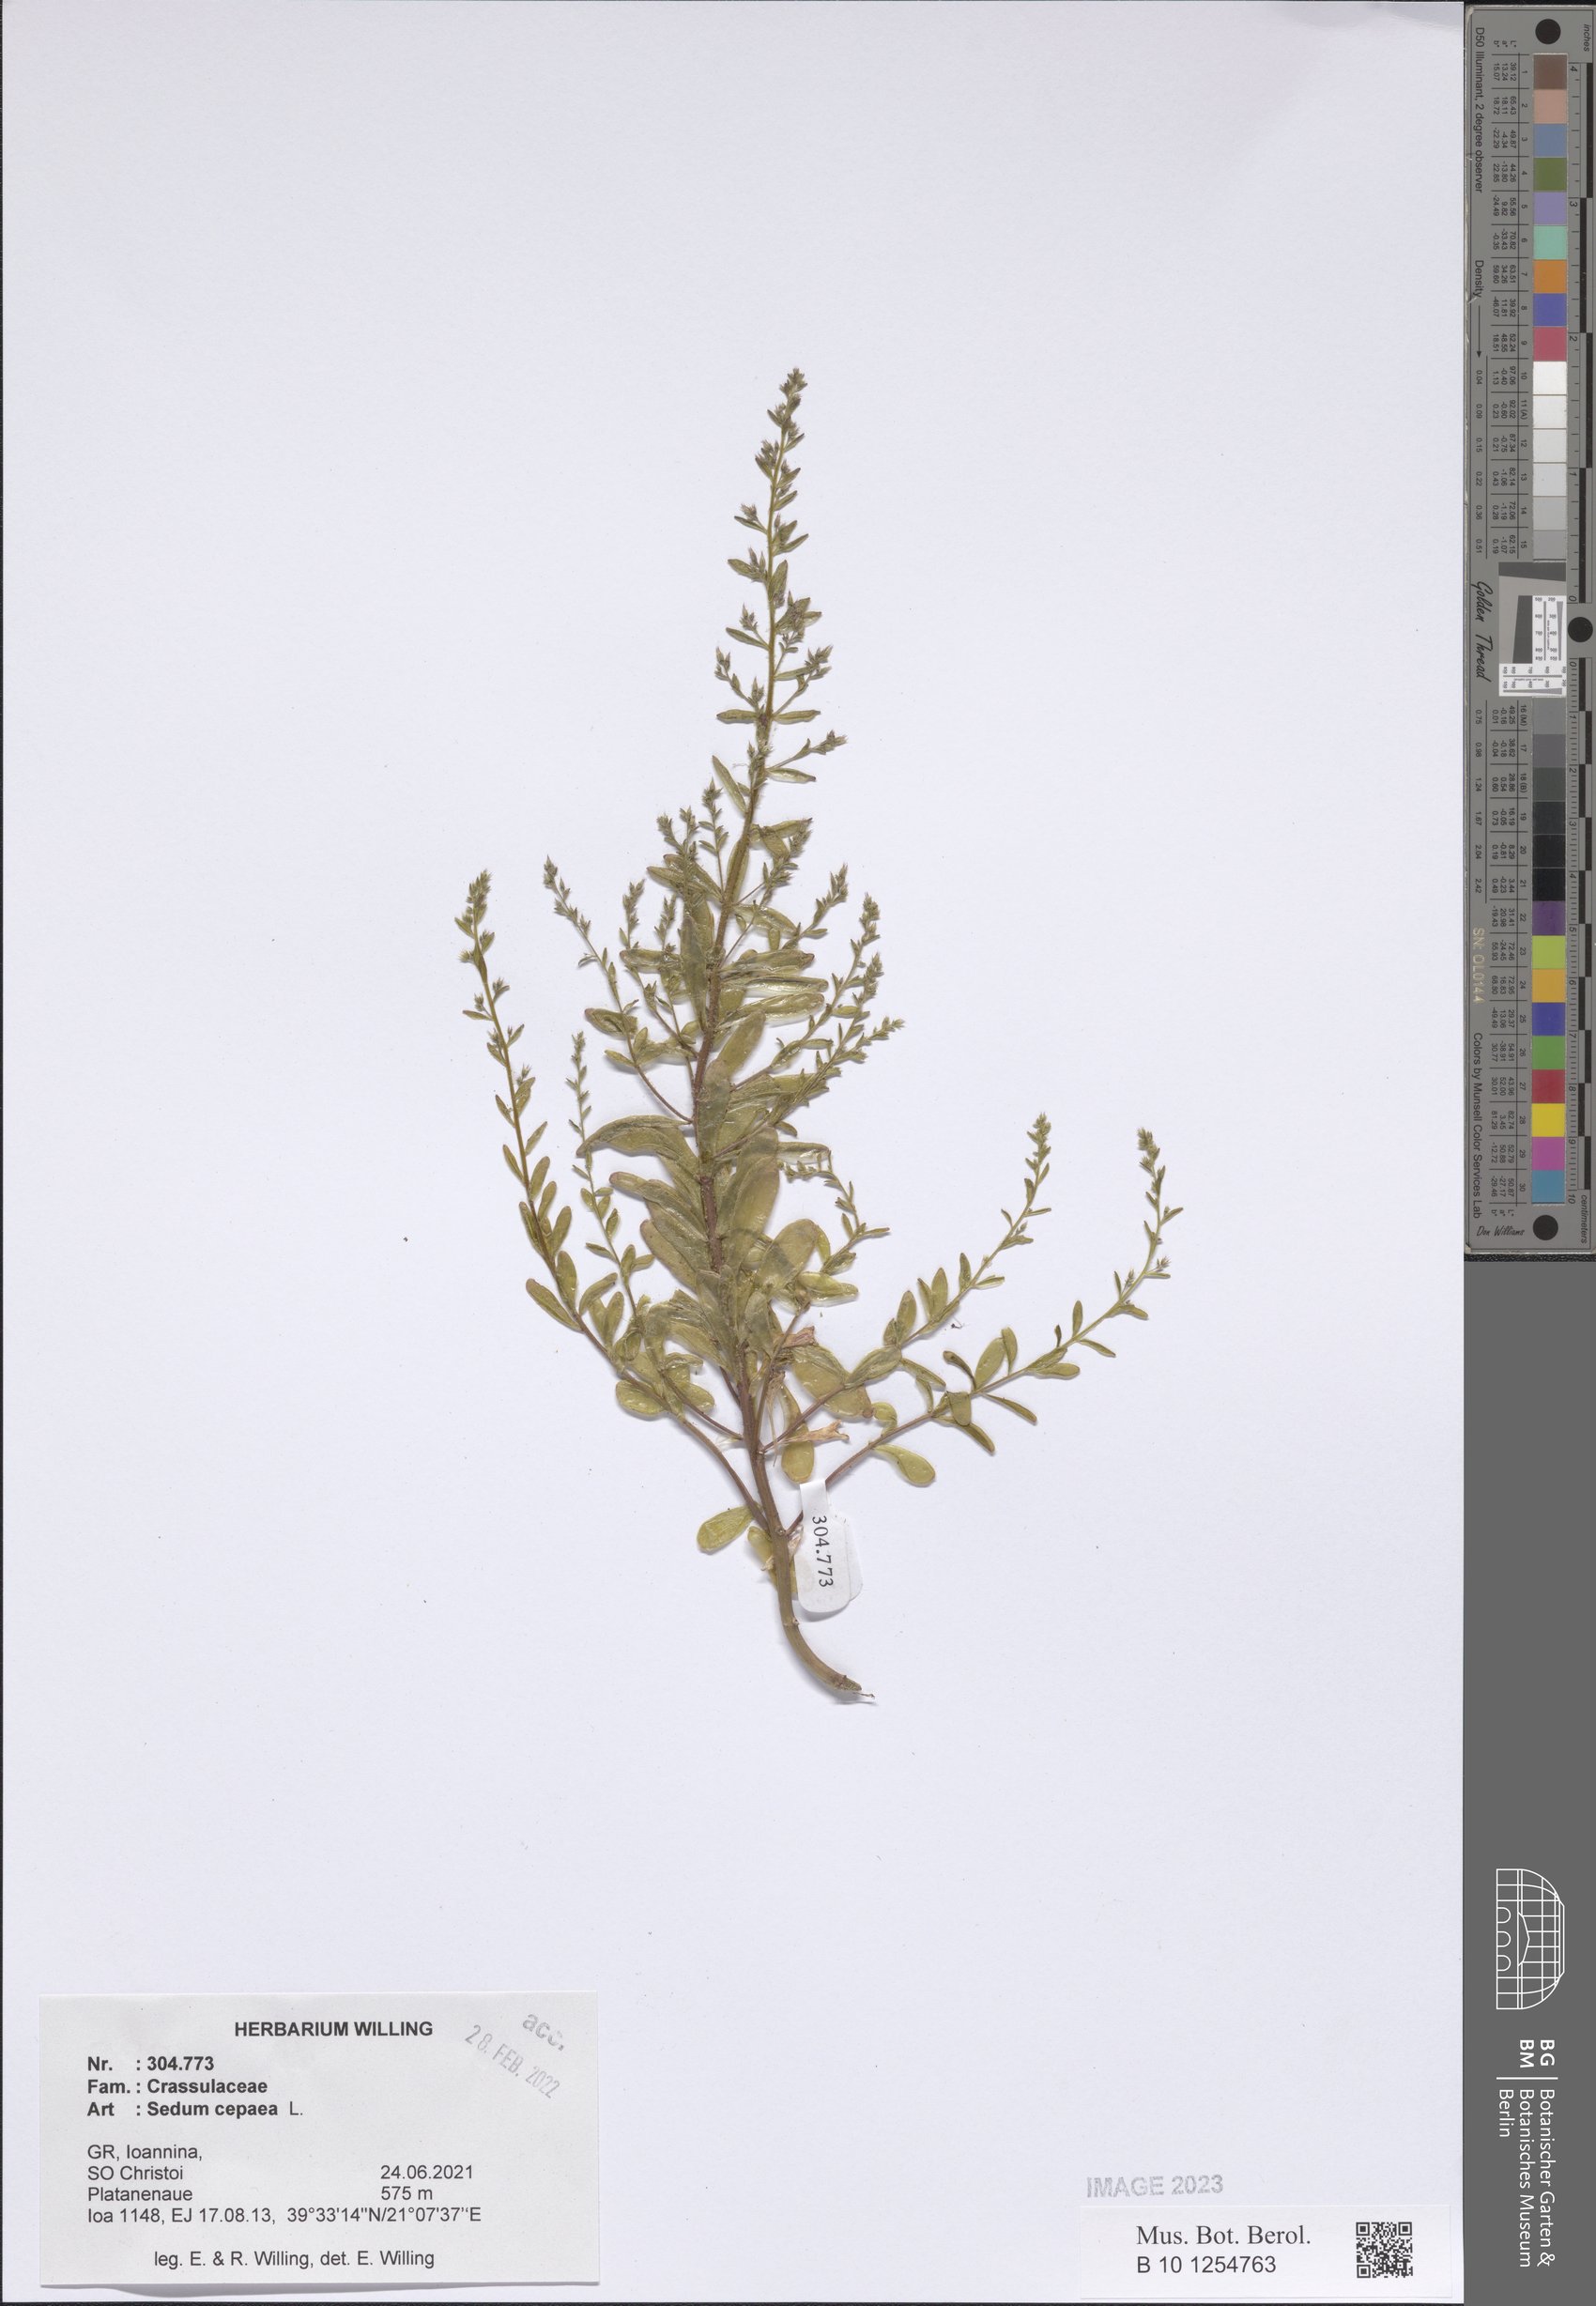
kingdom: Plantae
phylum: Tracheophyta
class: Magnoliopsida
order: Saxifragales
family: Crassulaceae
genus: Sedum
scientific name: Sedum cepaea
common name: Pink stonecrop
